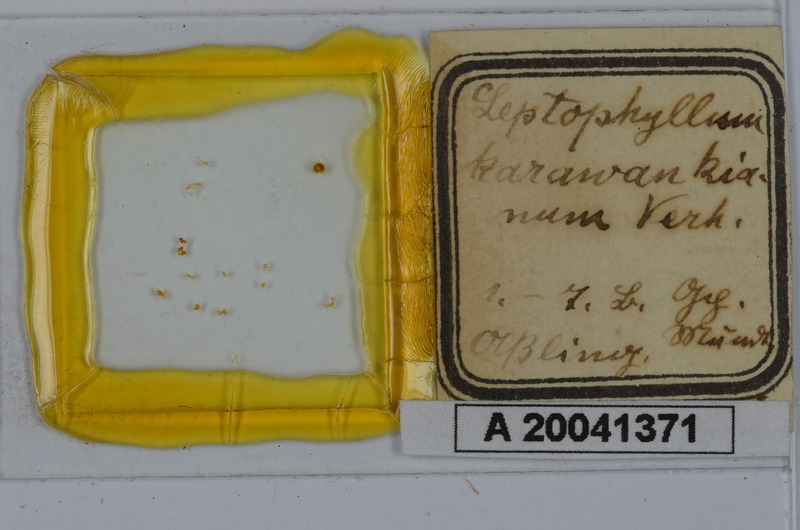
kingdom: Animalia
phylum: Arthropoda
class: Diplopoda
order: Julida
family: Julidae
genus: Enantiulus
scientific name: Enantiulus karawankianus
